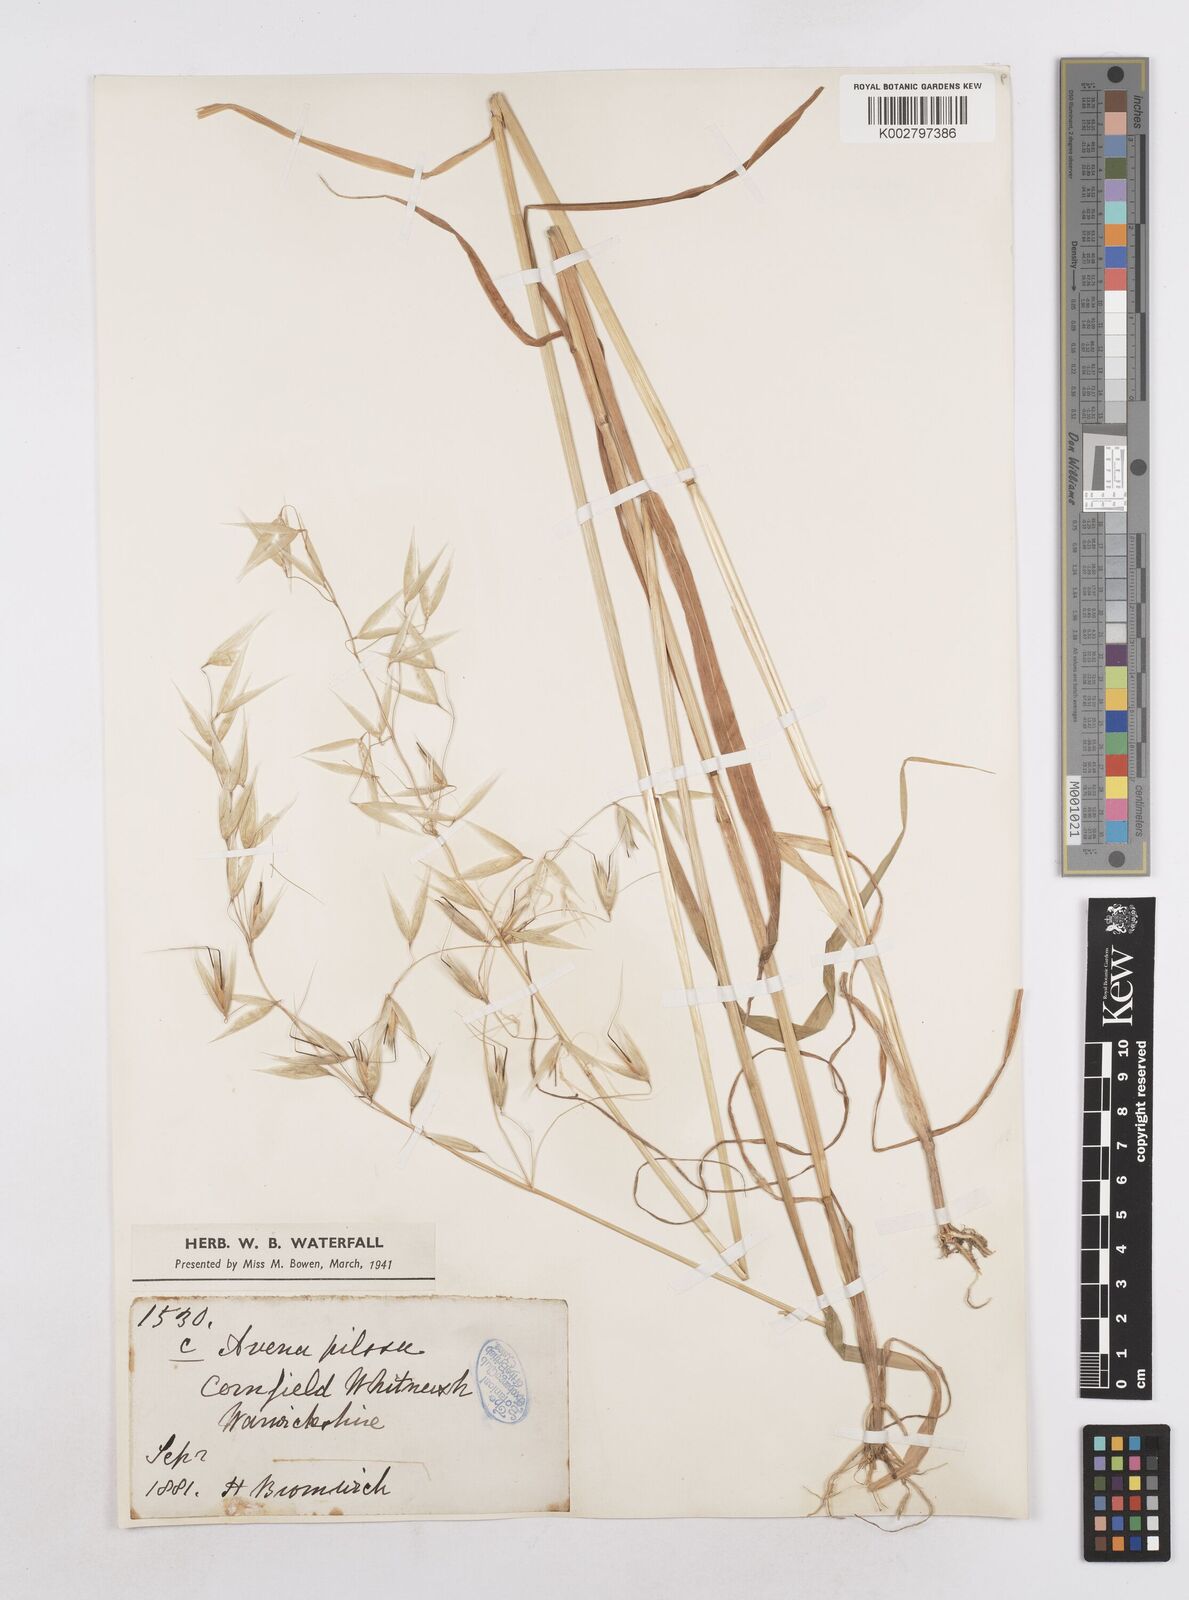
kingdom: Plantae
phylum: Tracheophyta
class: Liliopsida
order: Poales
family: Poaceae
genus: Avena
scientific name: Avena fatua
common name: Wild oat
